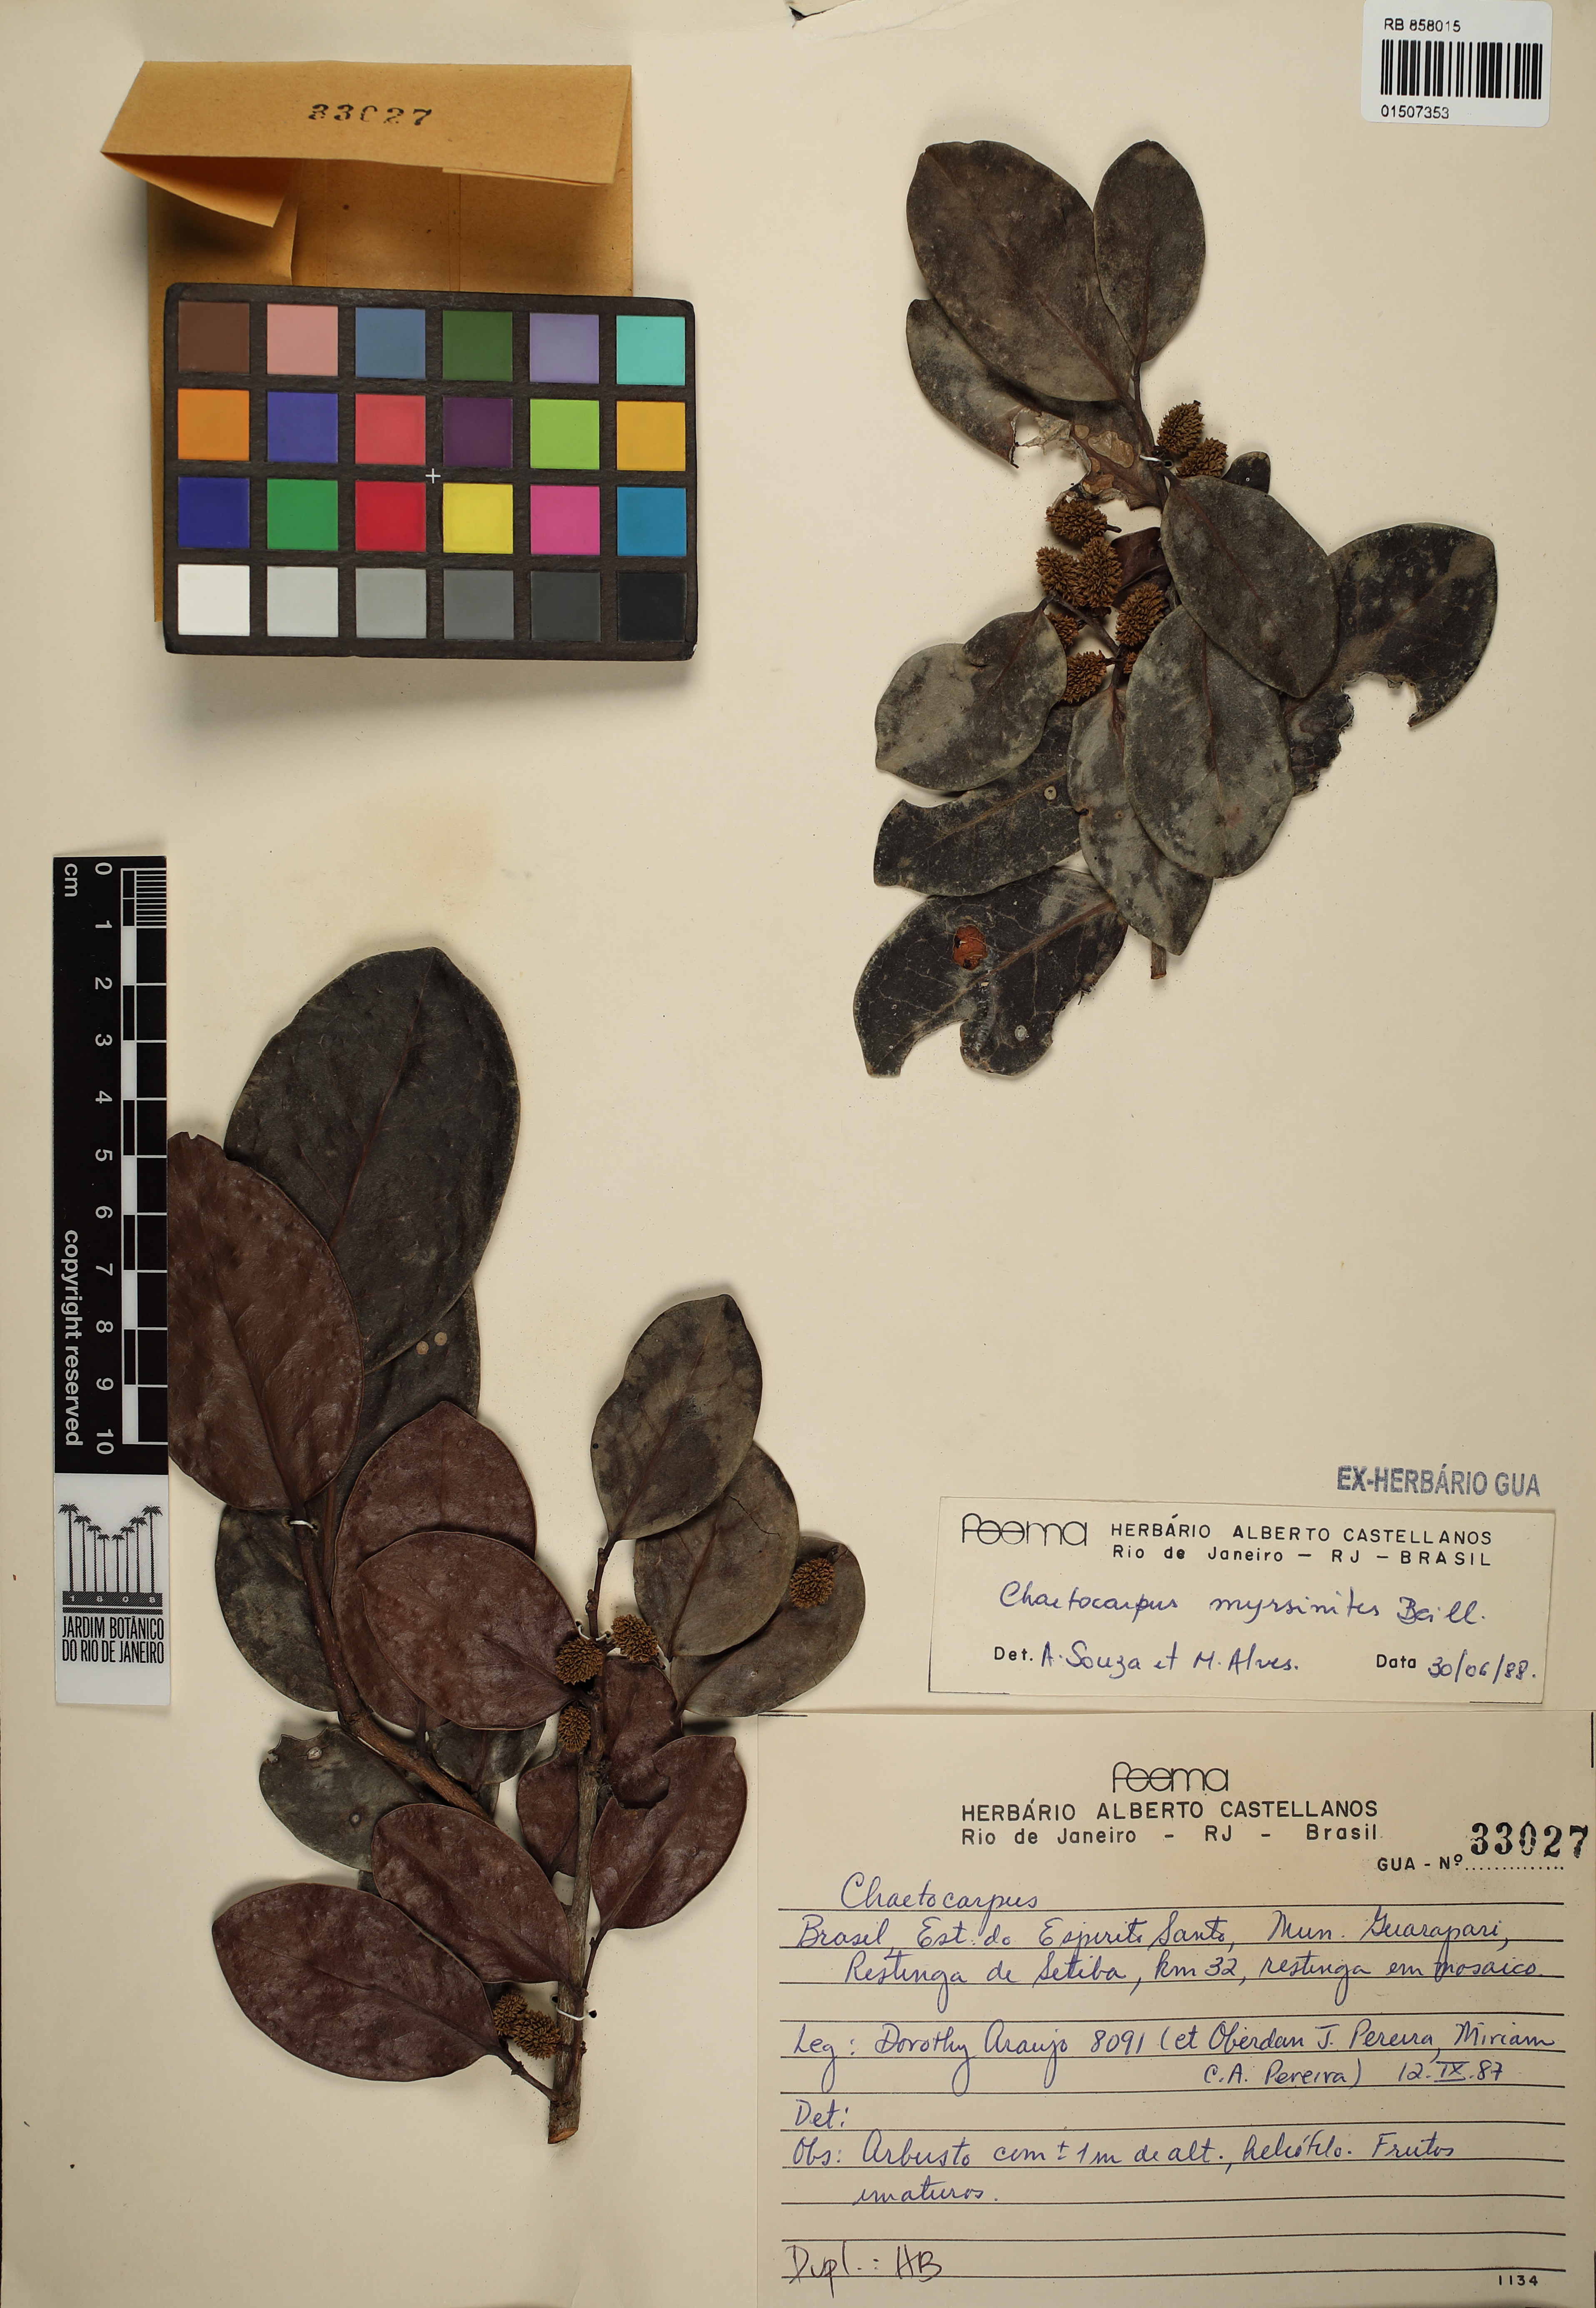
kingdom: Plantae
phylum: Tracheophyta
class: Magnoliopsida
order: Malpighiales
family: Peraceae
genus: Chaetocarpus
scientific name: Chaetocarpus myrsinites
